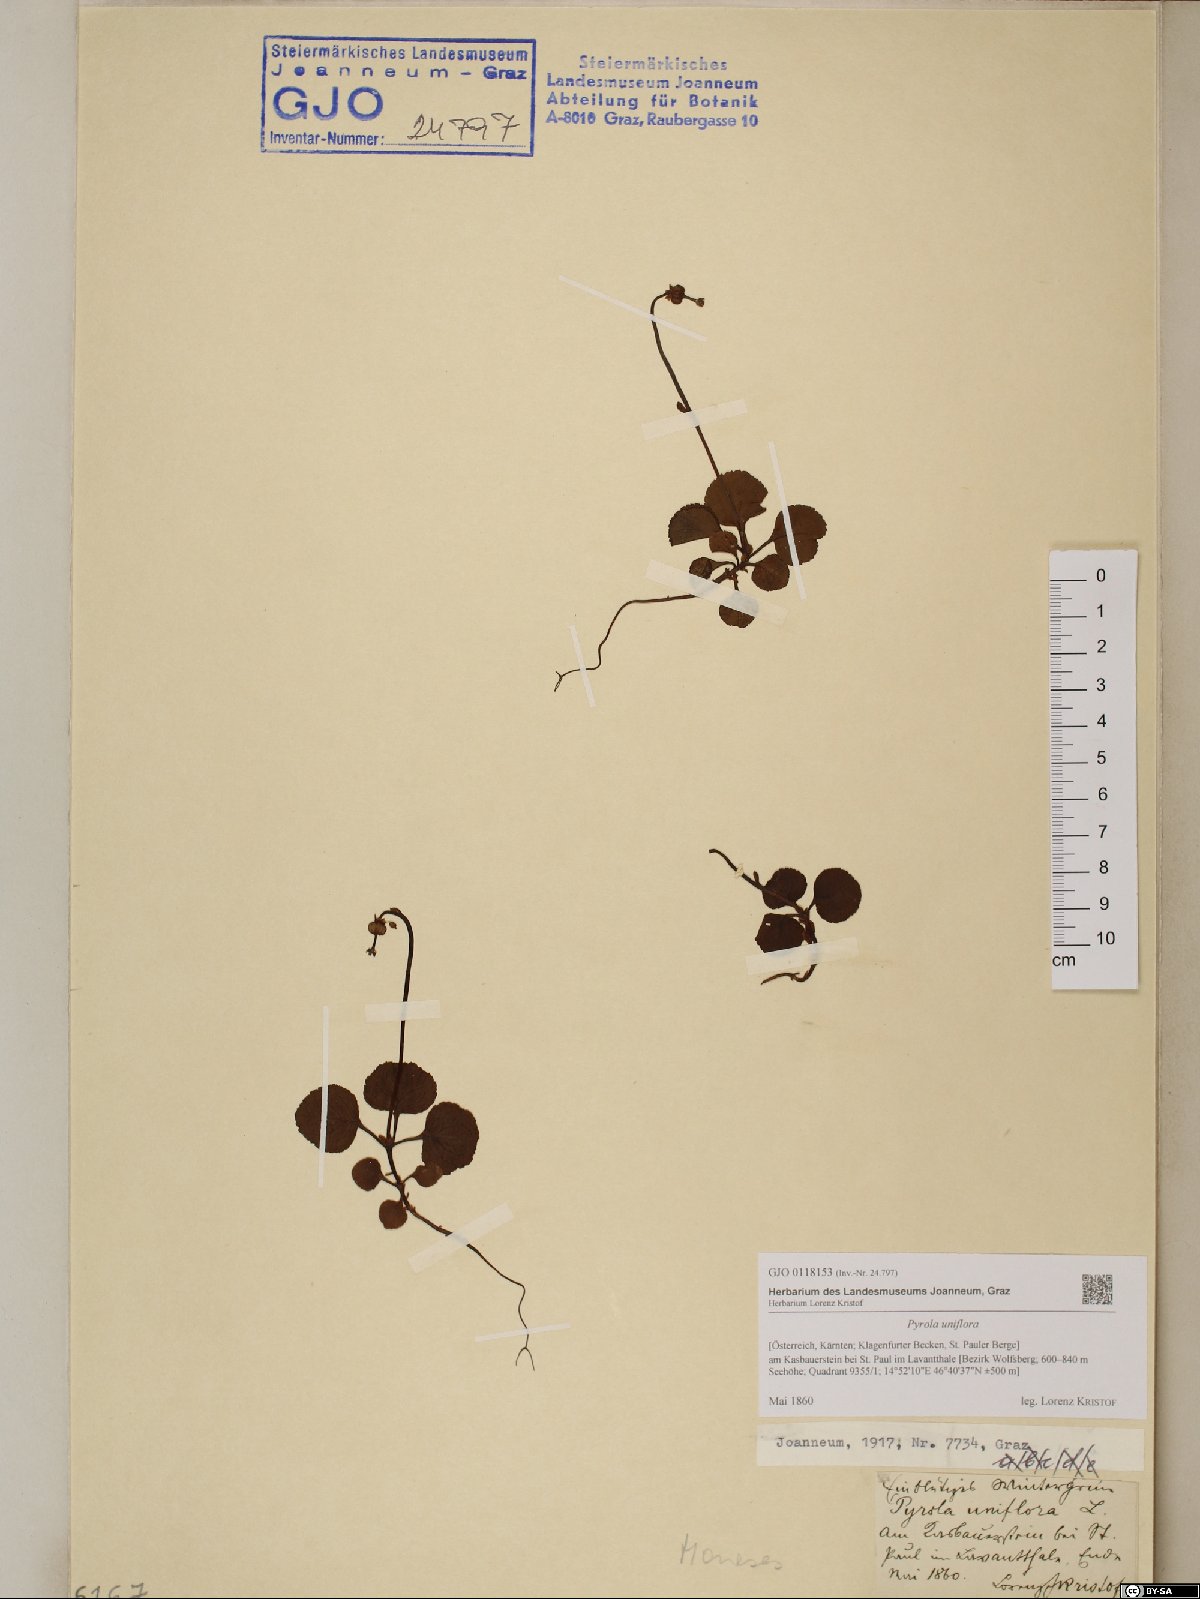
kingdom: Plantae
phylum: Tracheophyta
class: Magnoliopsida
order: Ericales
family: Ericaceae
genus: Moneses
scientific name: Moneses uniflora
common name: One-flowered wintergreen
